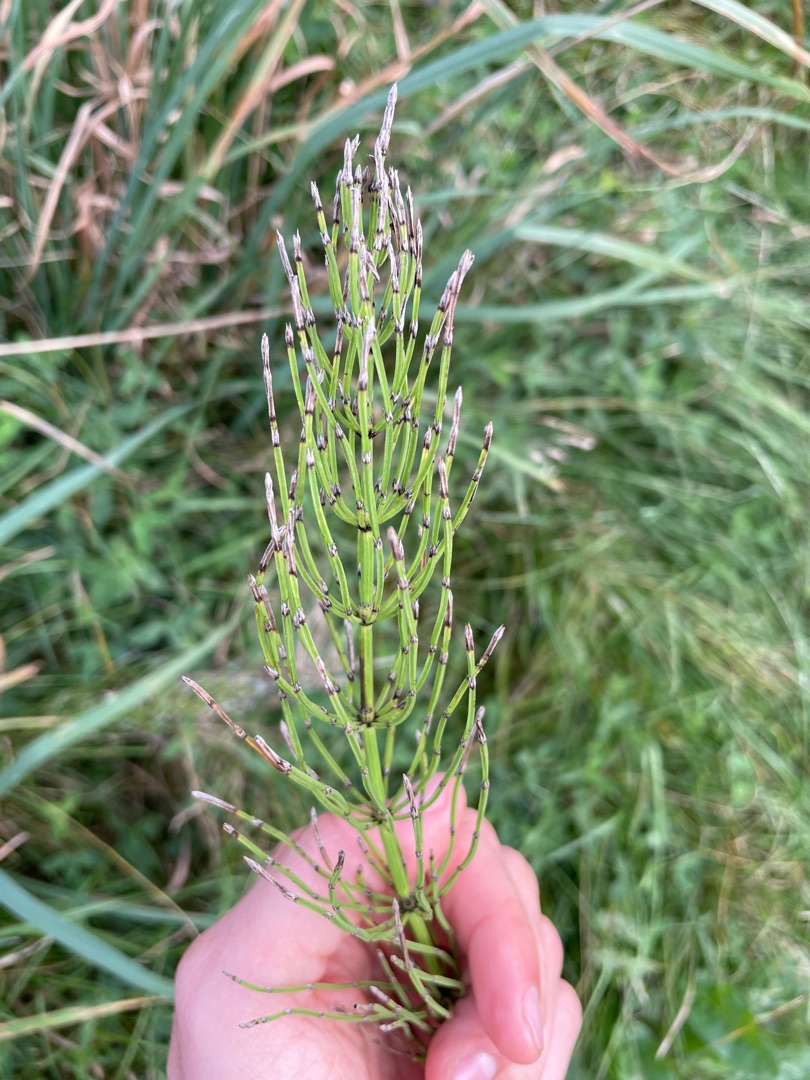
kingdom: Plantae
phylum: Tracheophyta
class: Polypodiopsida
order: Equisetales
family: Equisetaceae
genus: Equisetum
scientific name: Equisetum arvense
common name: Ager-padderok
